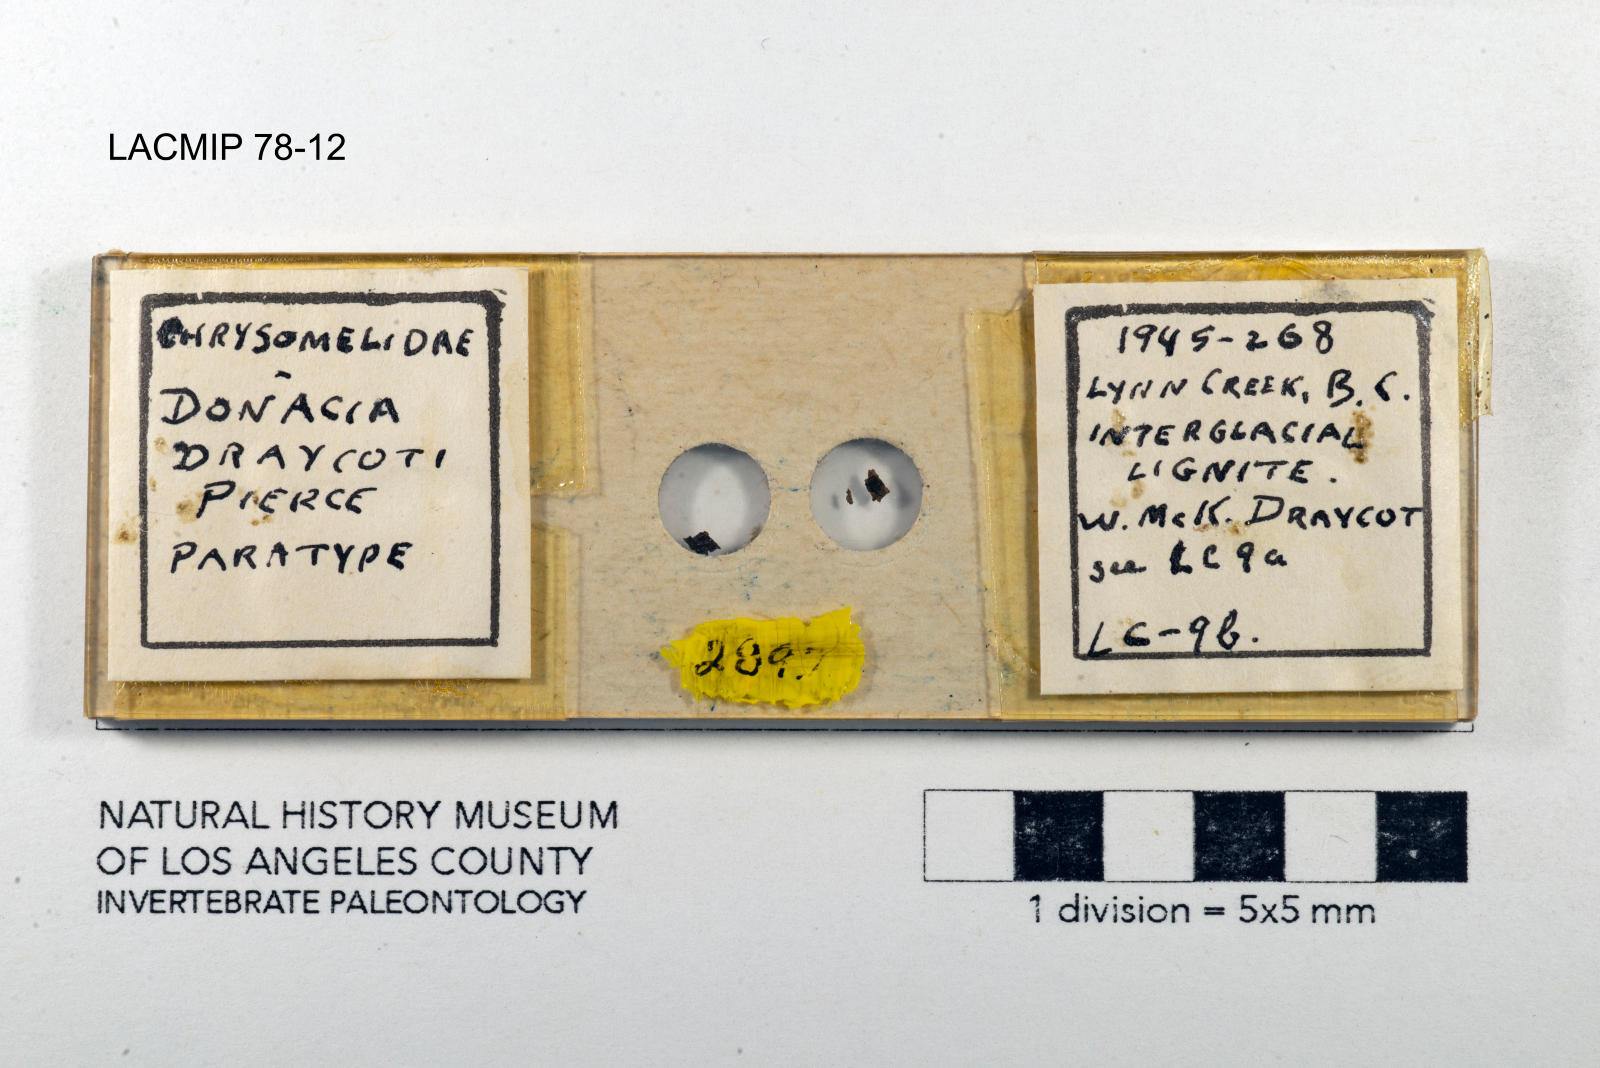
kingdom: Animalia
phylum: Arthropoda
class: Insecta
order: Coleoptera
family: Chrysomelidae
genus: Donacia
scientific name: Donacia draycoti
